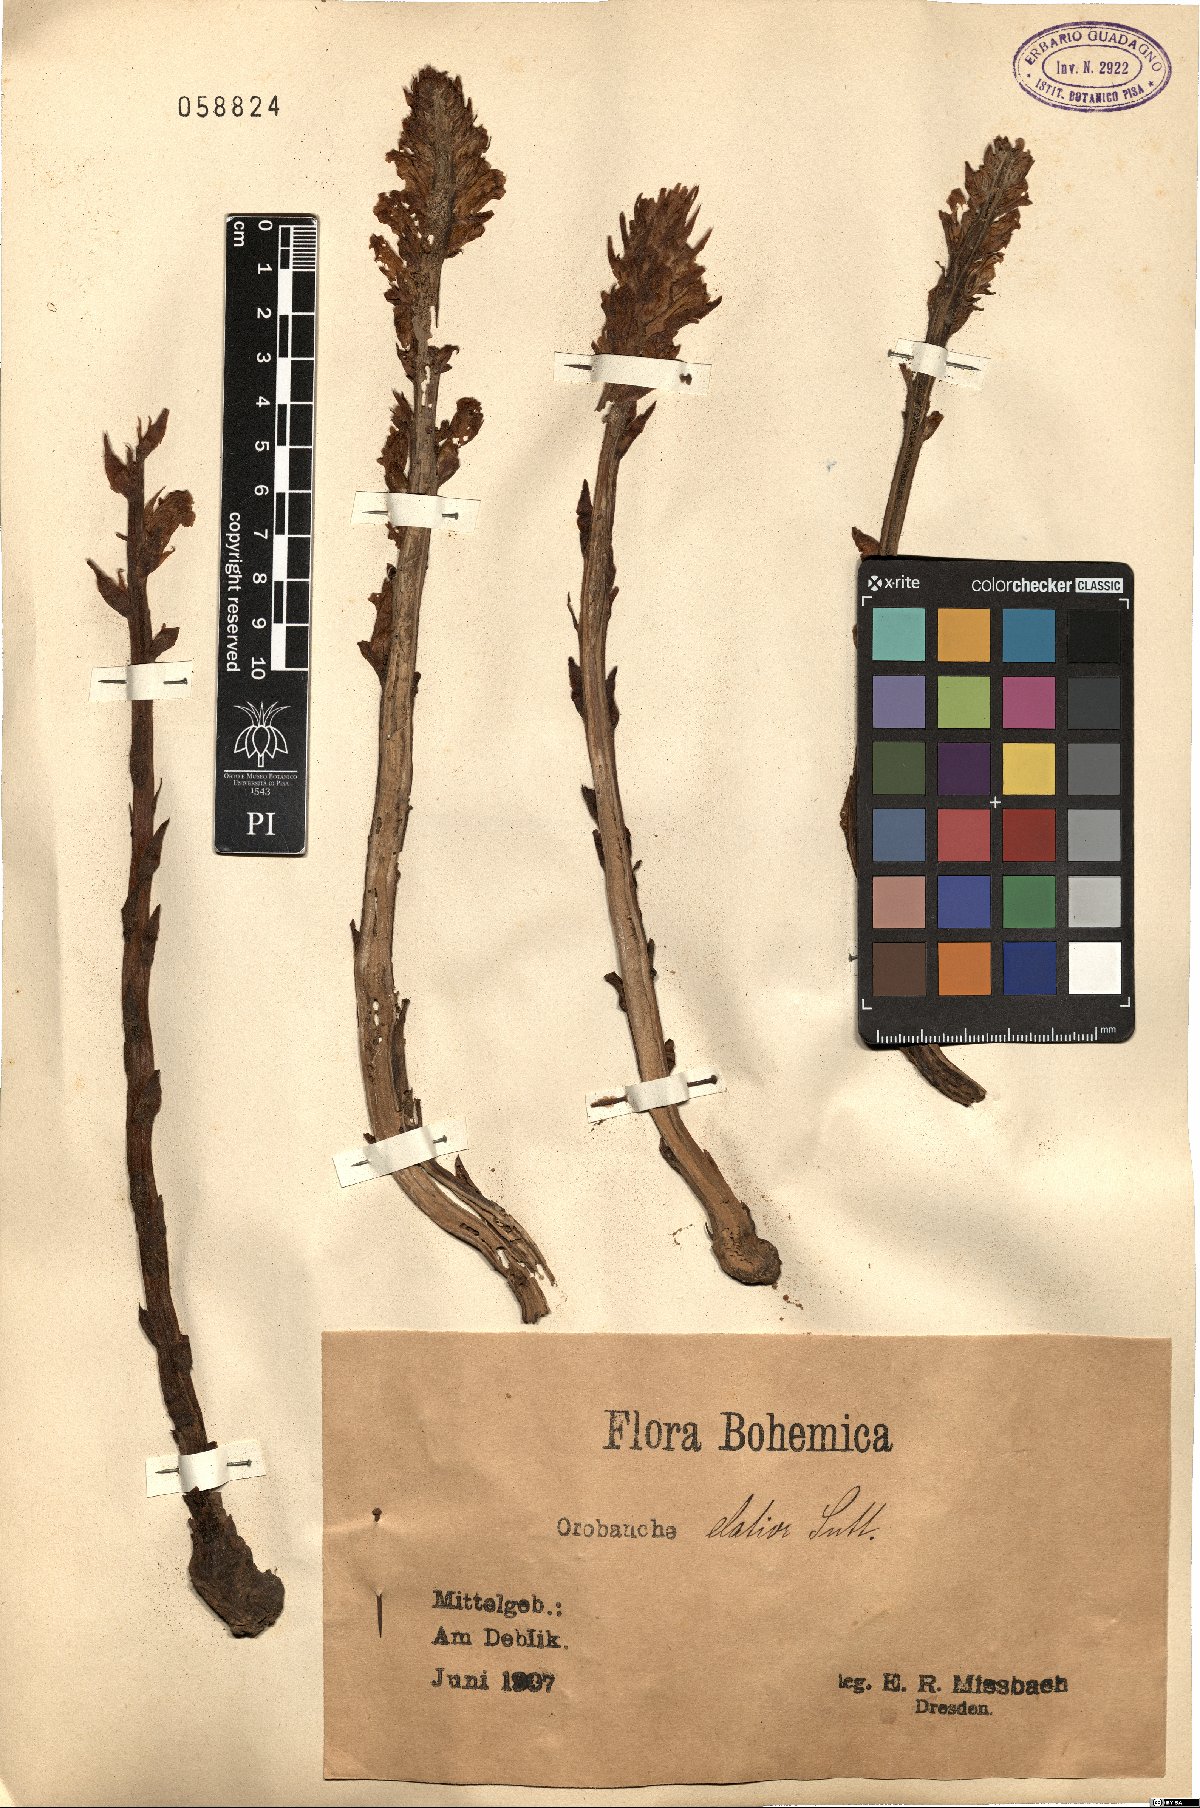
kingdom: Plantae
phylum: Tracheophyta
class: Magnoliopsida
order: Lamiales
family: Orobanchaceae
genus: Orobanche
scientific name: Orobanche elatior
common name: Knapweed broomrape
